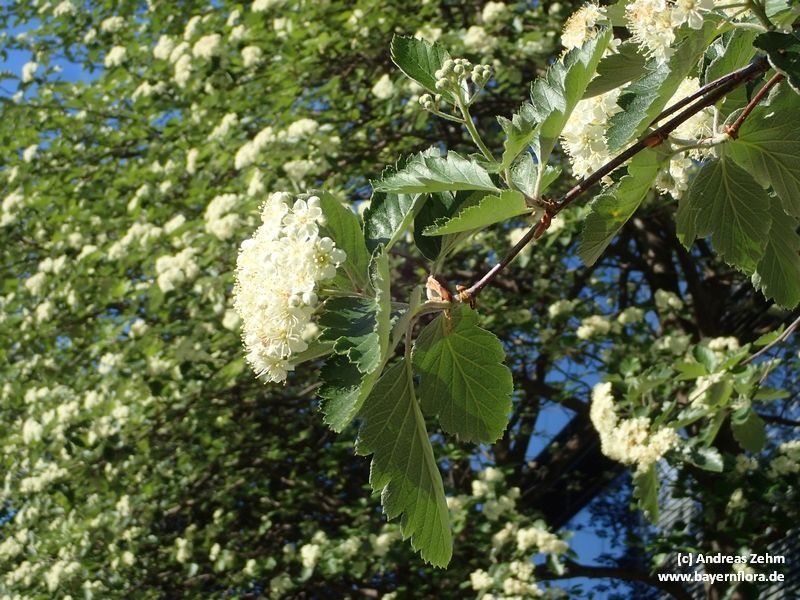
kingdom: Plantae
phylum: Tracheophyta
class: Magnoliopsida
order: Rosales
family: Rosaceae
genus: Scandosorbus
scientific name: Scandosorbus intermedia
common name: Swedish whitebeam
